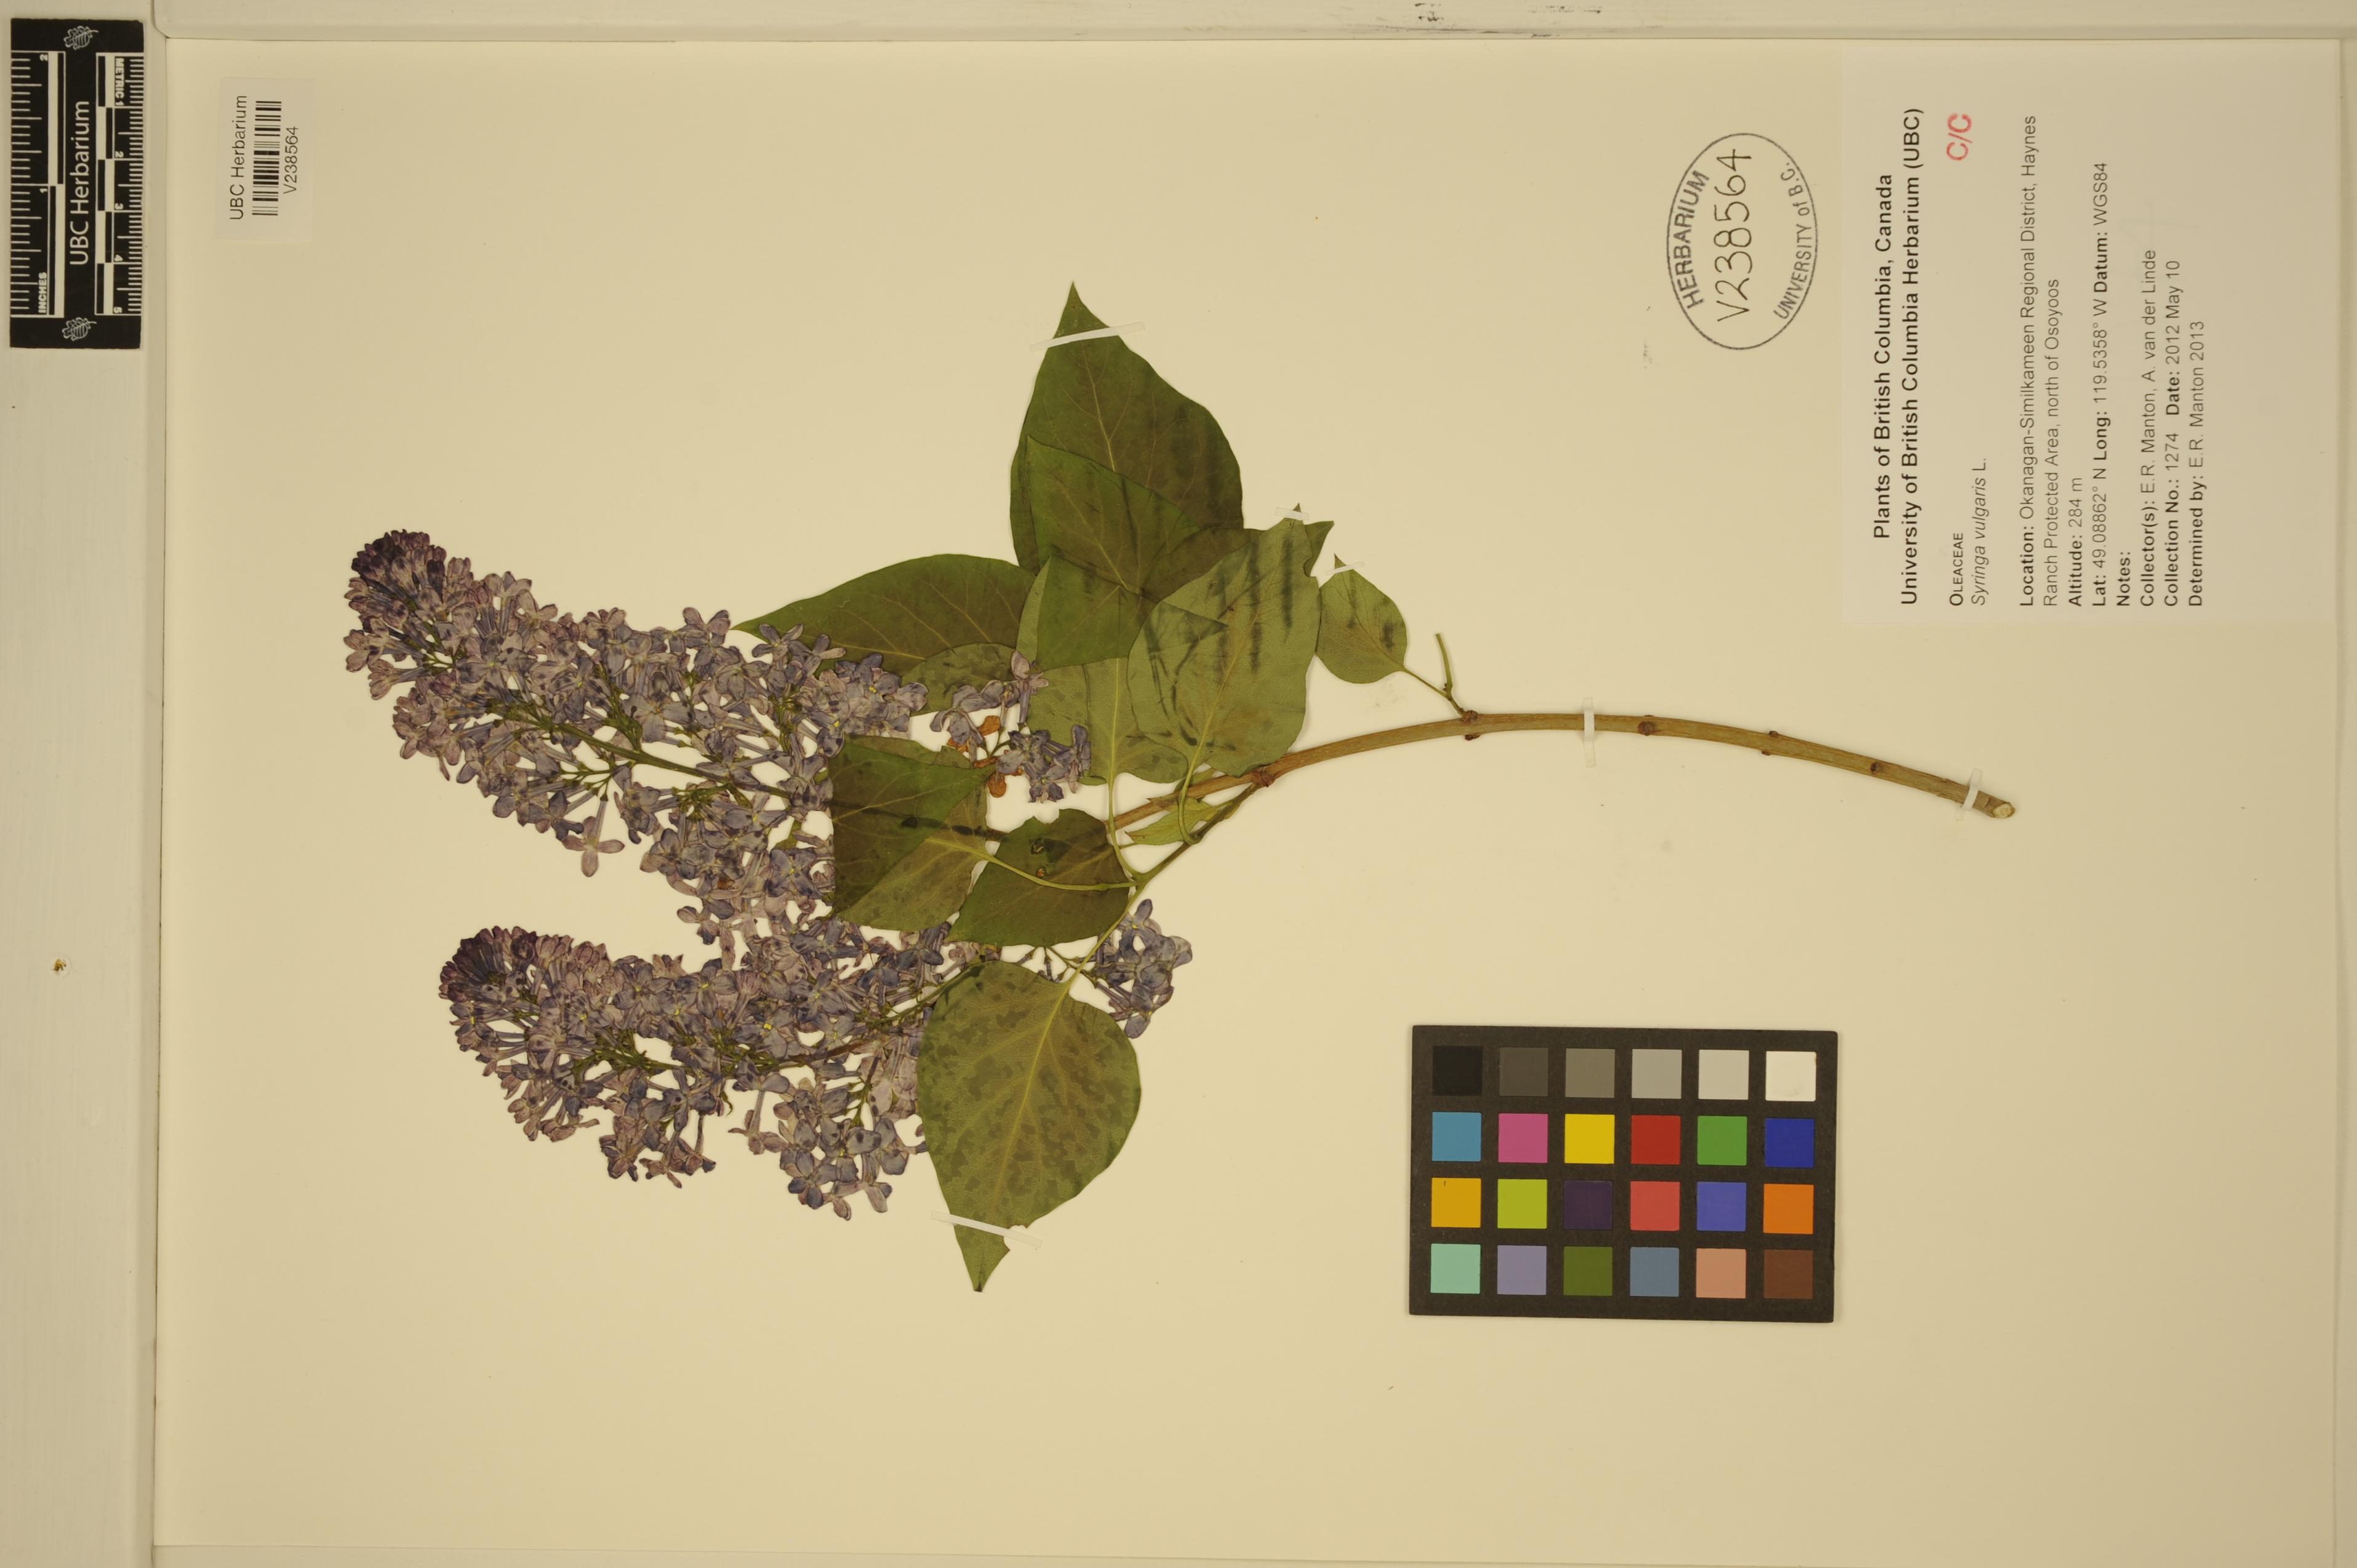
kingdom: Plantae
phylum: Tracheophyta
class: Magnoliopsida
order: Lamiales
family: Oleaceae
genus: Syringa
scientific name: Syringa vulgaris
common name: Common lilac
